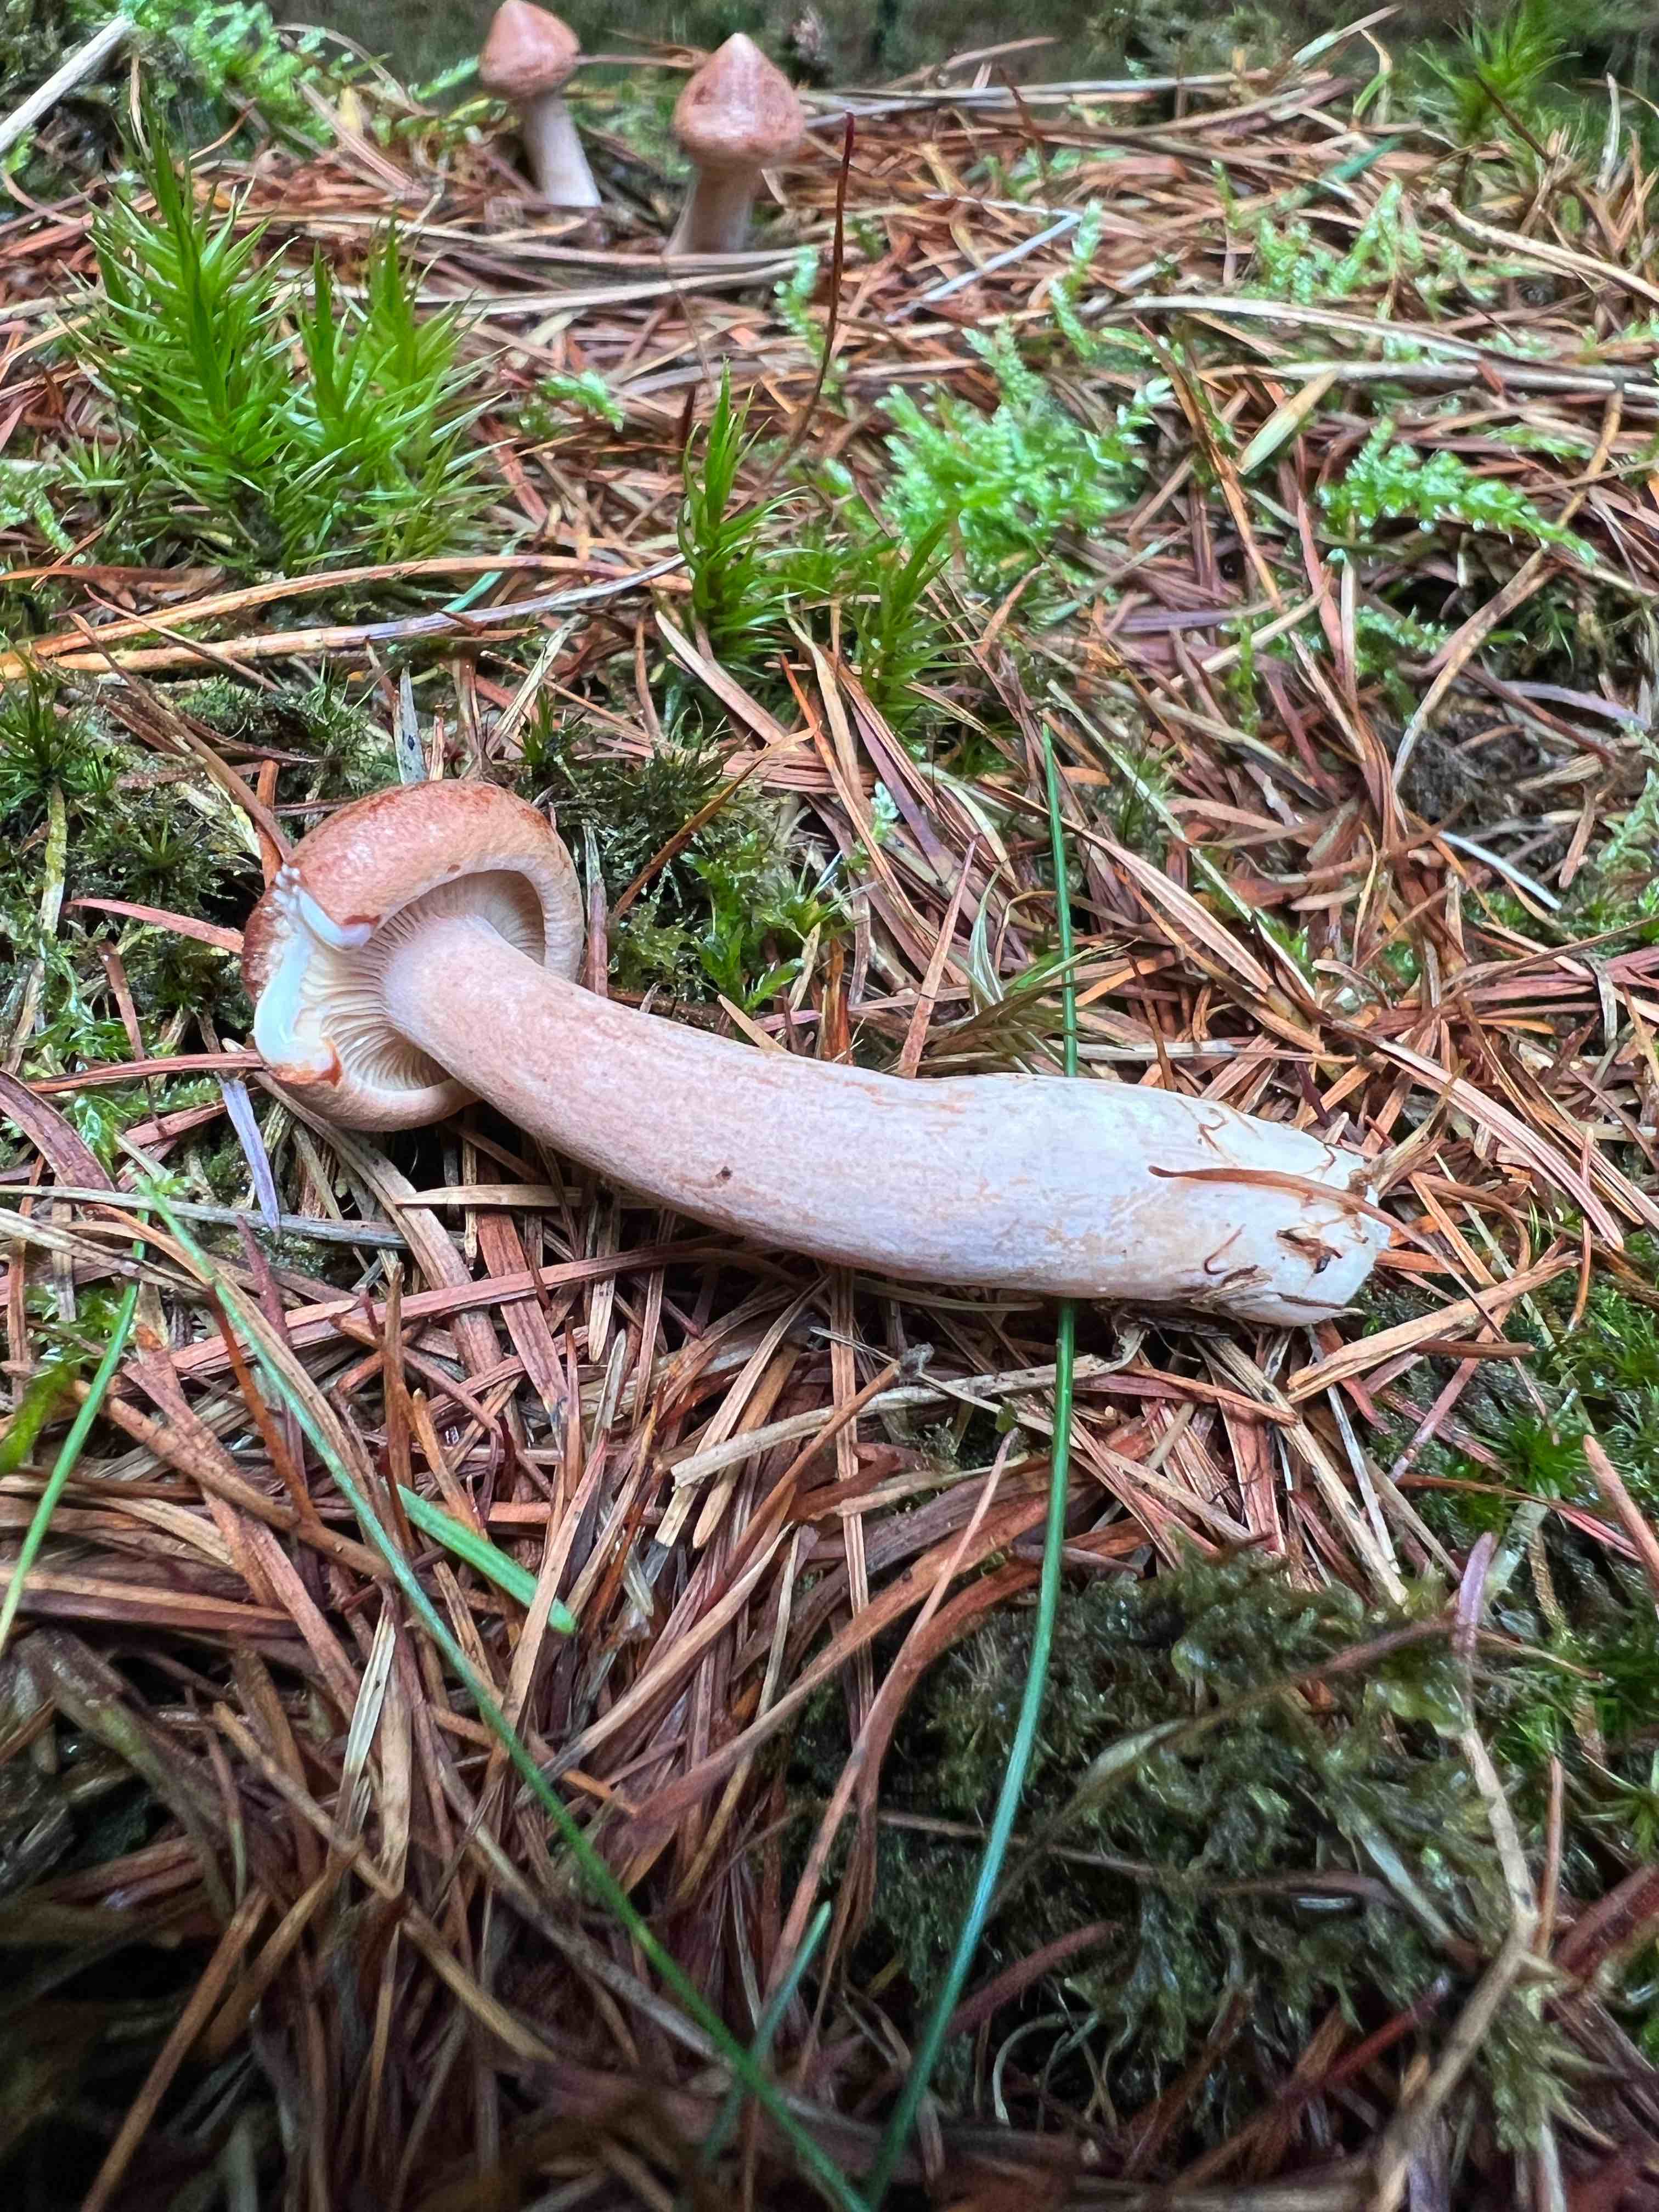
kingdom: Fungi
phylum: Basidiomycota
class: Agaricomycetes
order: Russulales
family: Russulaceae
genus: Lactarius
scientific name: Lactarius rufus
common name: rødbrun mælkehat
